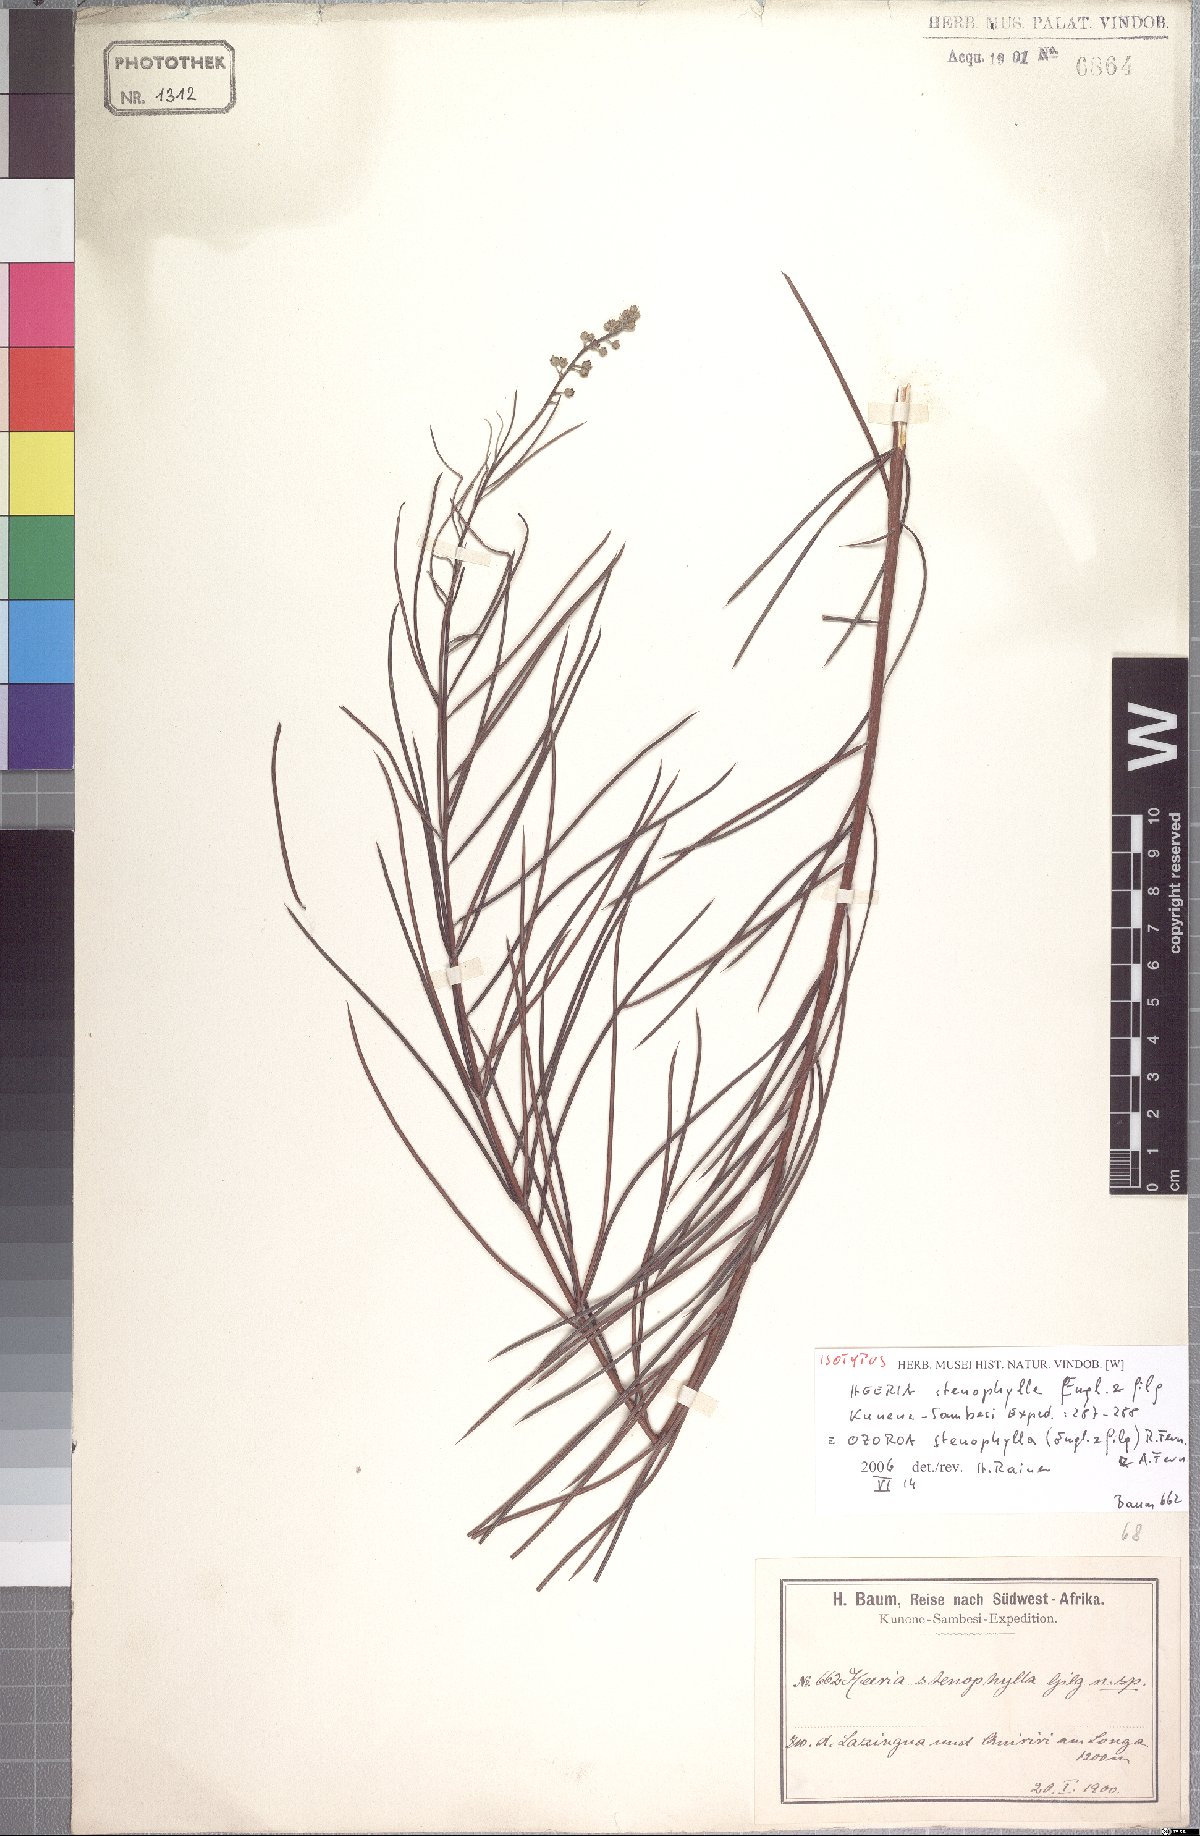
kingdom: Plantae
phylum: Tracheophyta
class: Magnoliopsida
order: Sapindales
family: Anacardiaceae
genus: Ozoroa
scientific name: Ozoroa stenophylla
